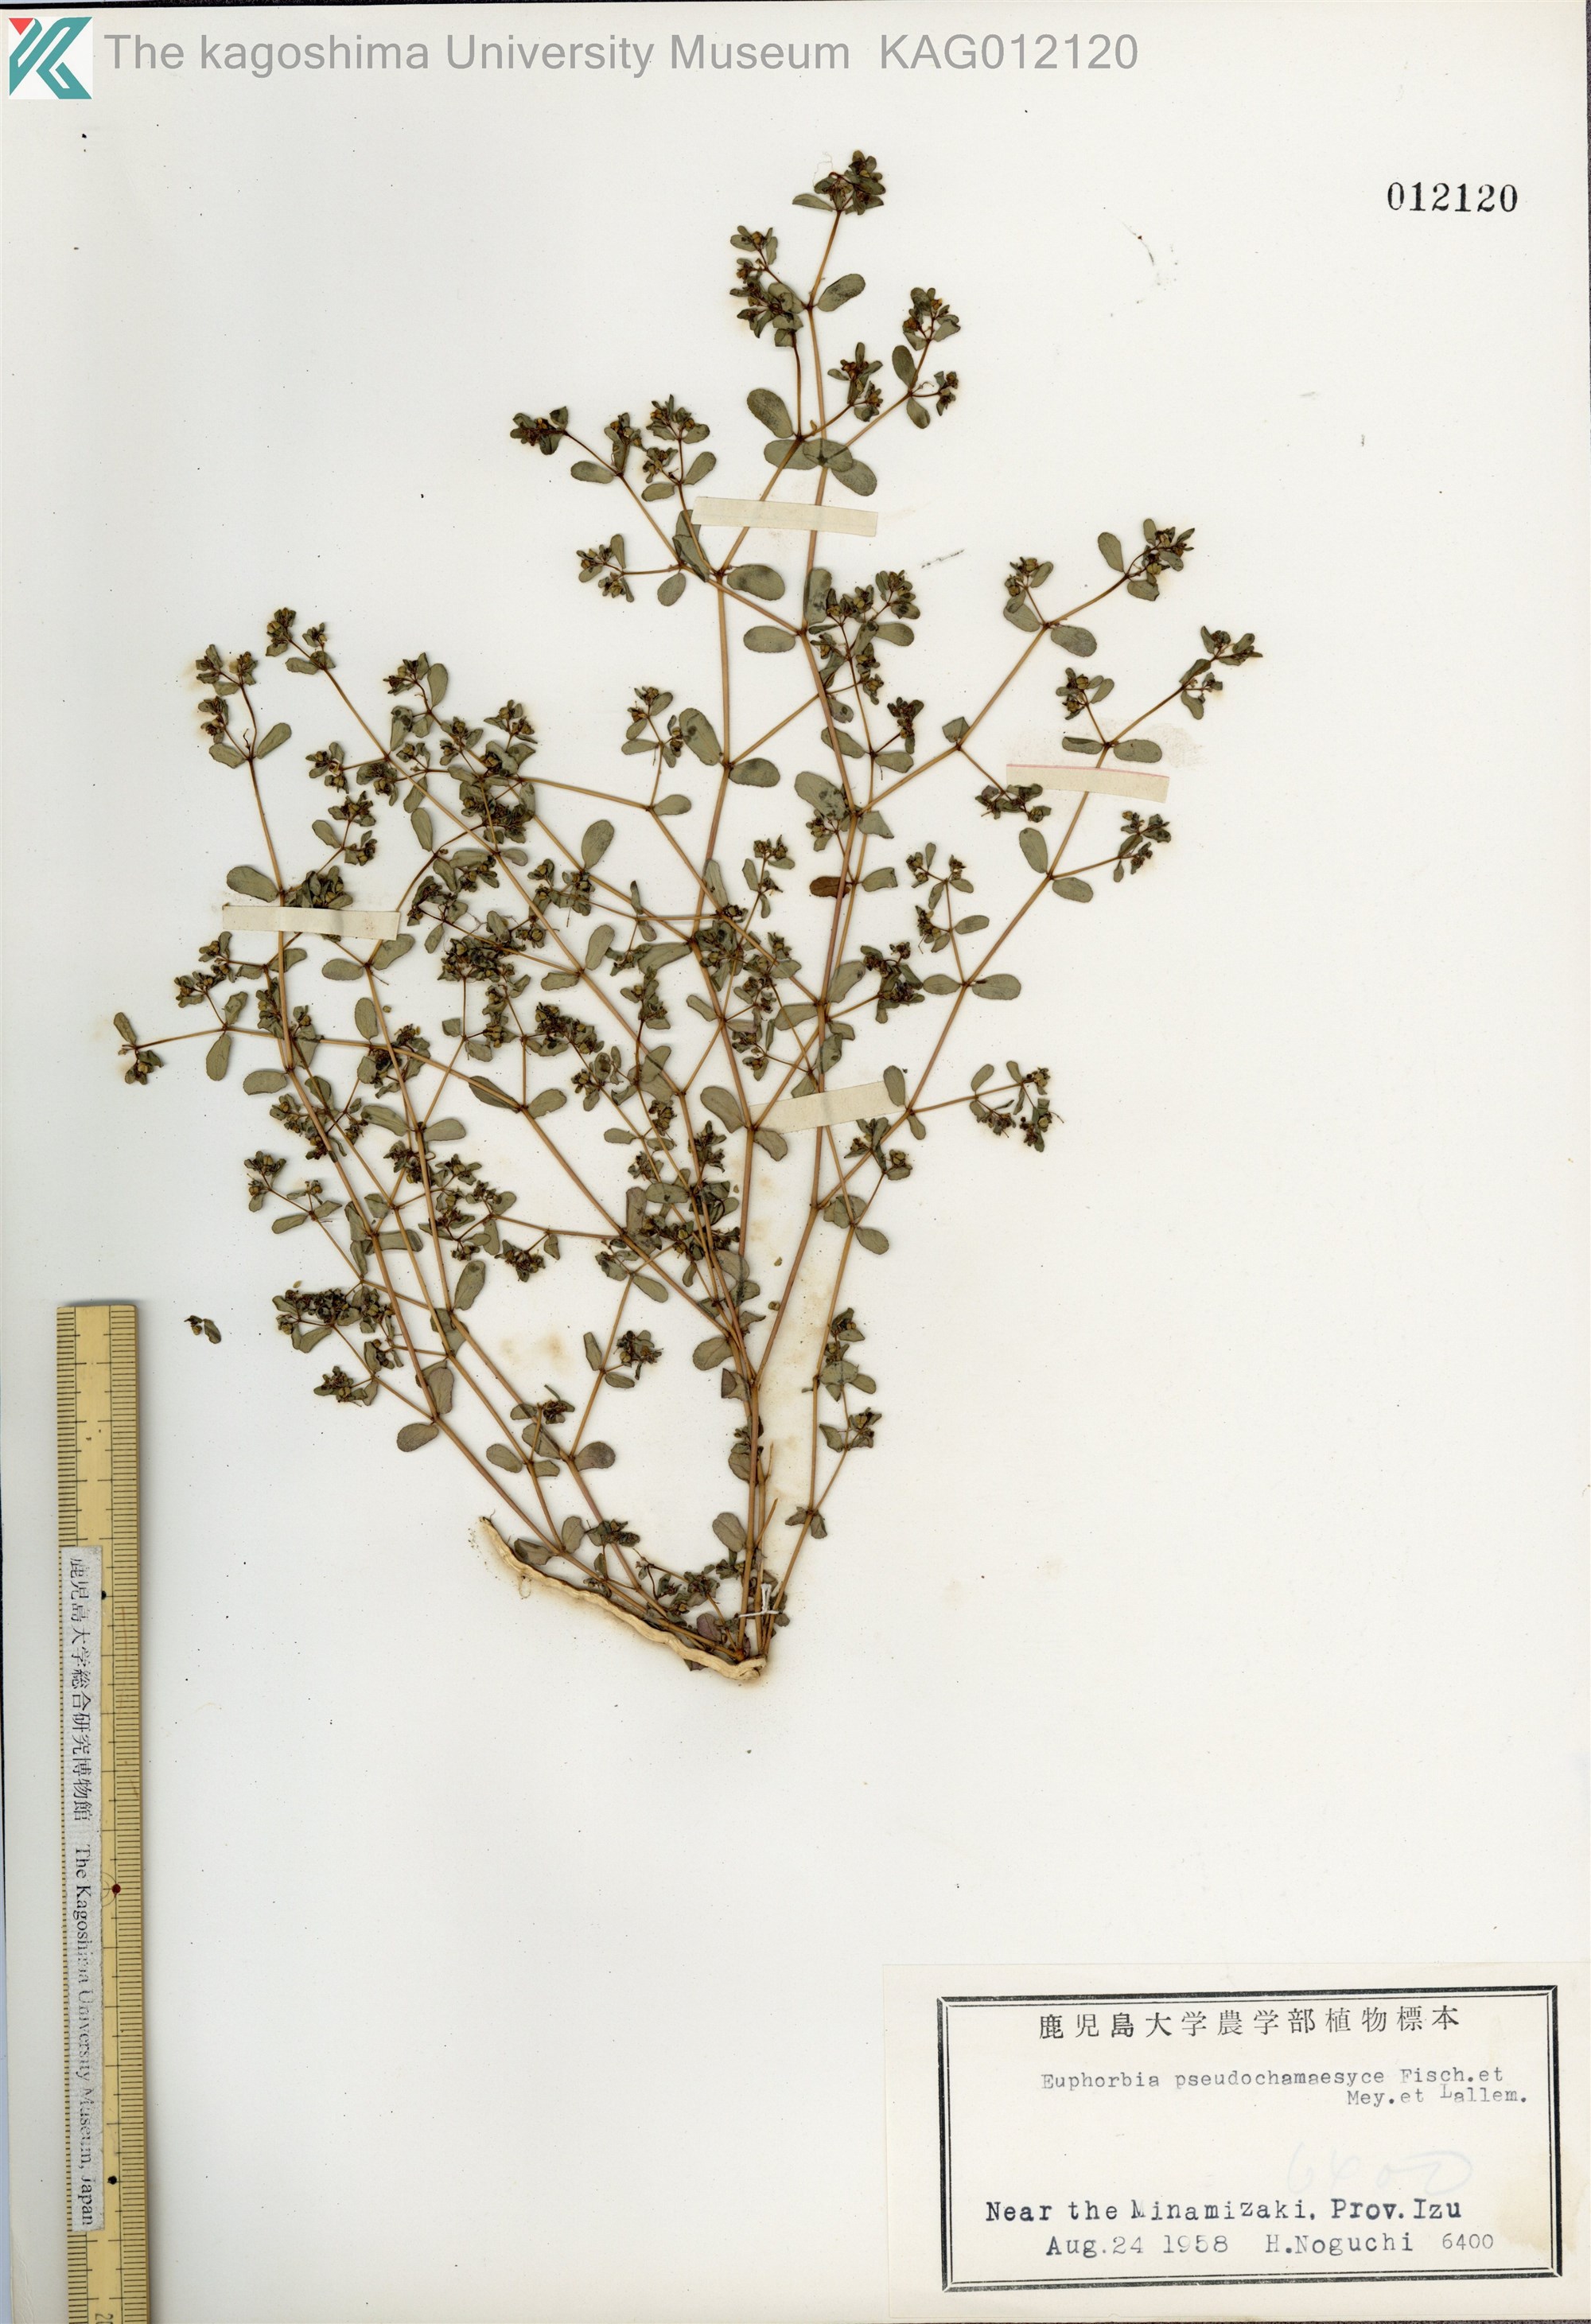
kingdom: Plantae
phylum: Tracheophyta
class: Magnoliopsida
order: Malpighiales
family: Euphorbiaceae
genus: Euphorbia
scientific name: Euphorbia humifusa
